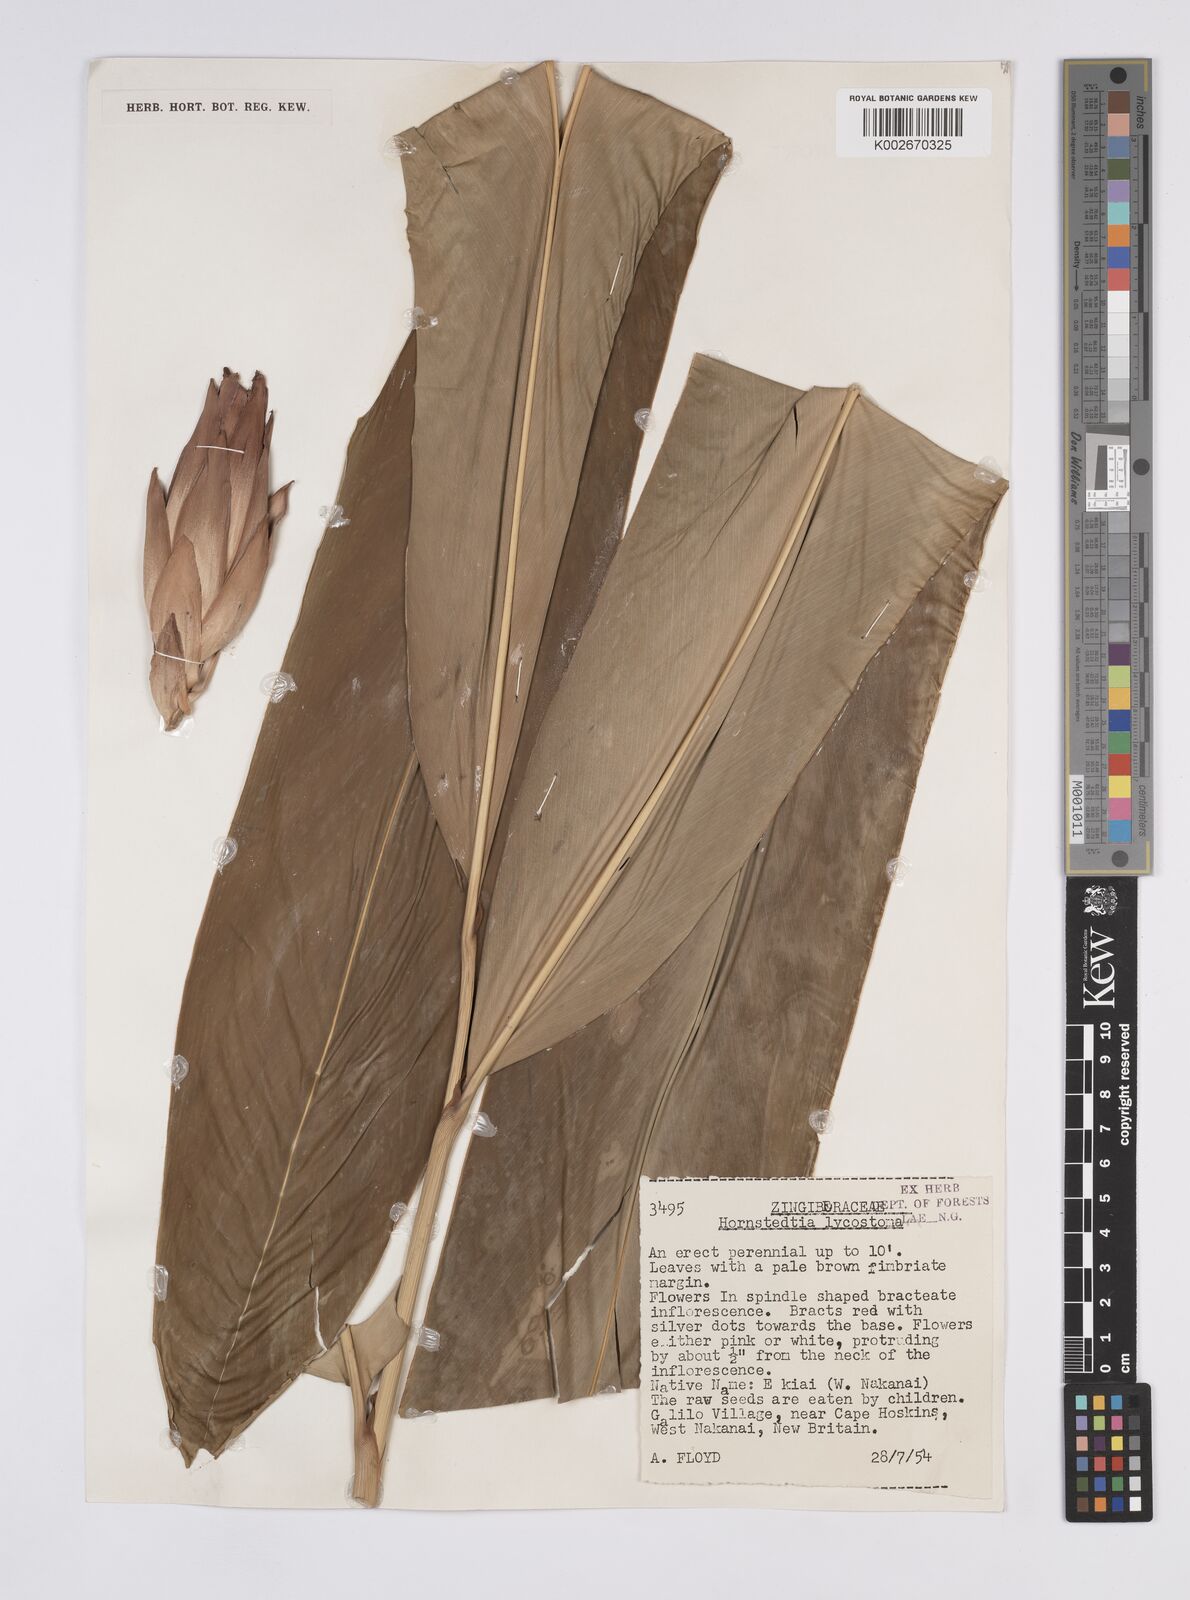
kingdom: Plantae
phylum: Tracheophyta
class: Liliopsida
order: Zingiberales
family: Zingiberaceae
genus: Hornstedtia
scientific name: Hornstedtia scottiana
